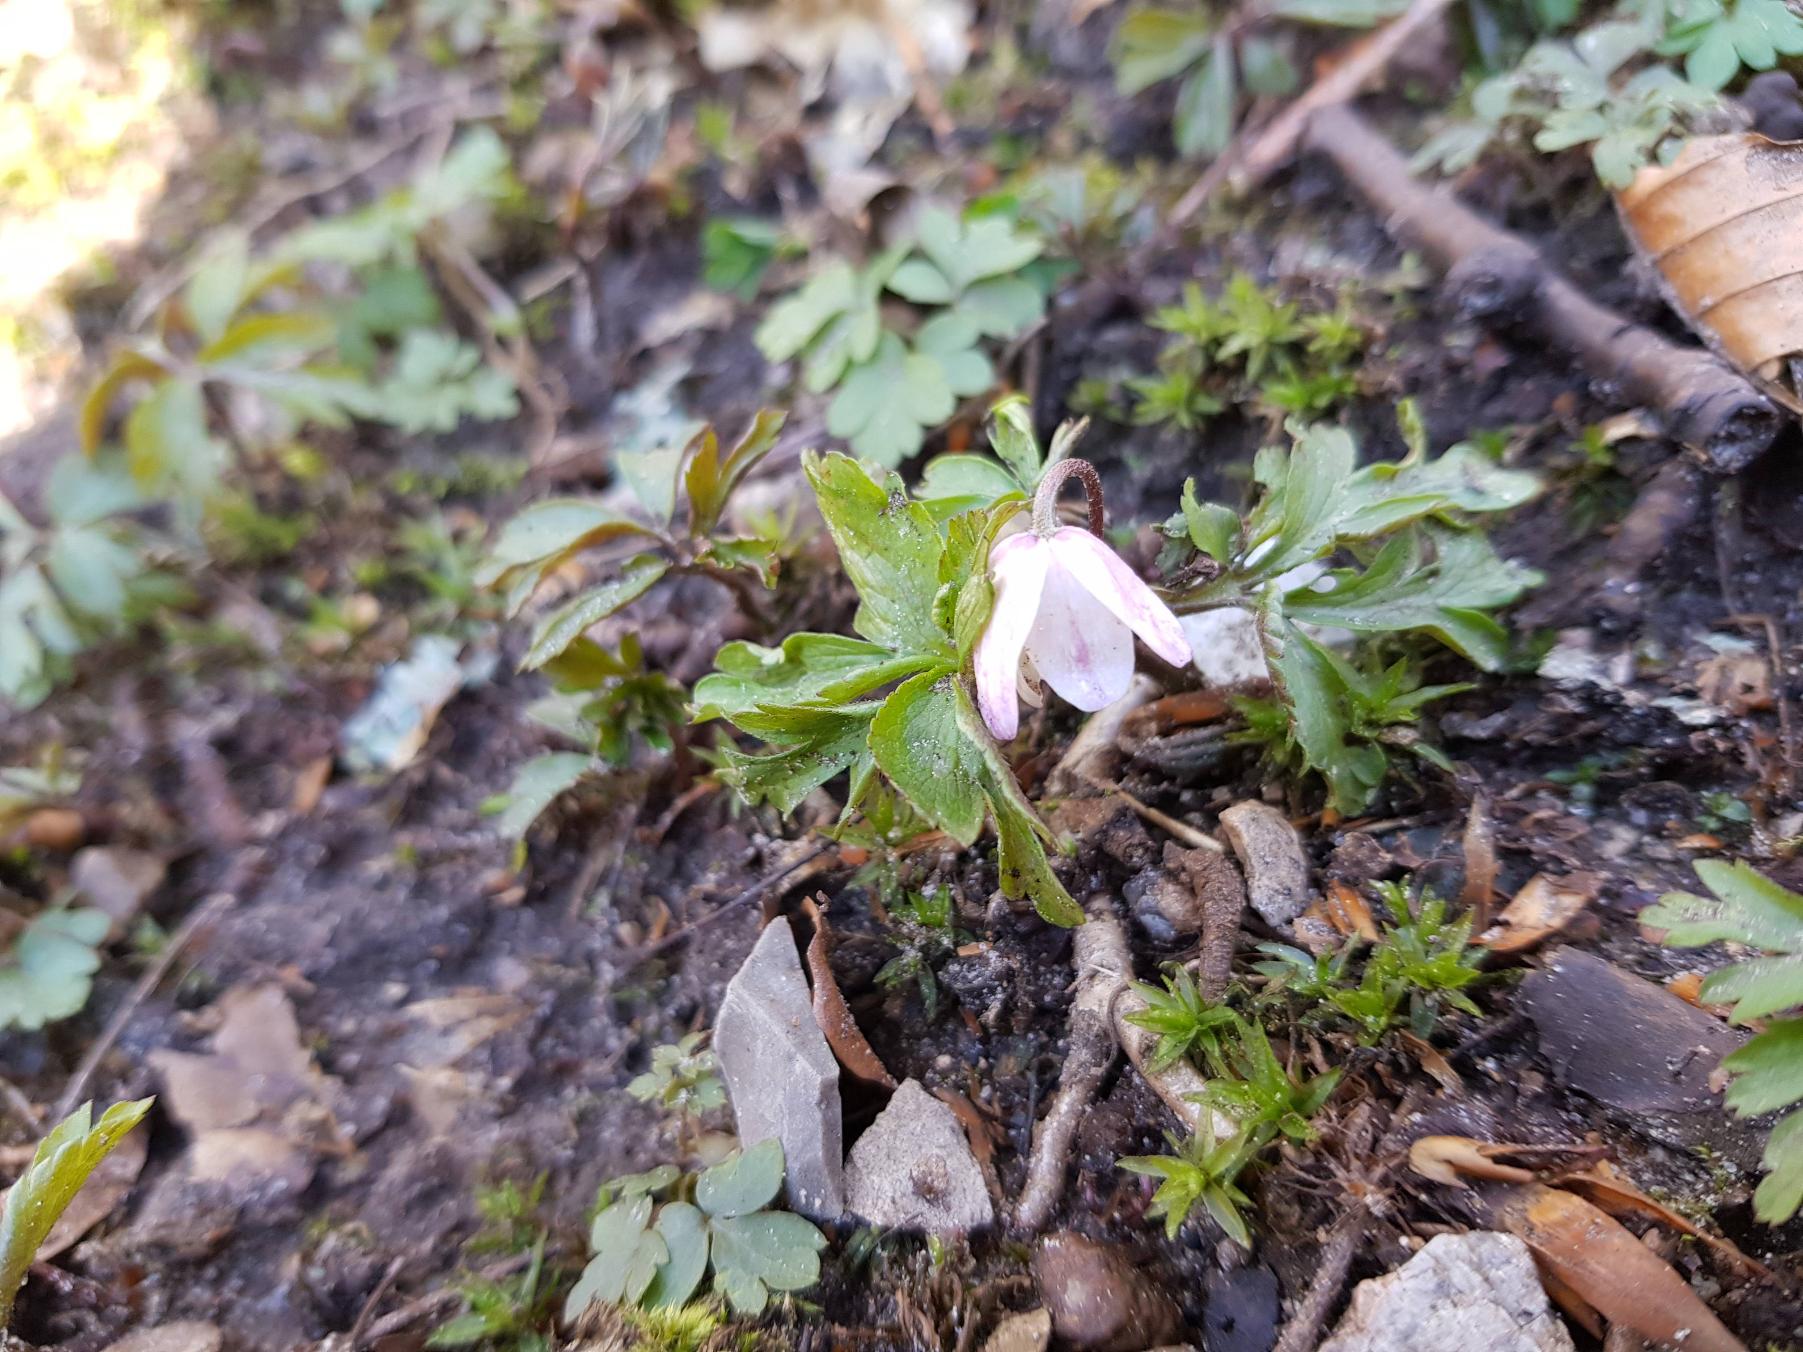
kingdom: Plantae
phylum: Tracheophyta
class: Magnoliopsida
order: Ranunculales
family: Ranunculaceae
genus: Anemone
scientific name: Anemone nemorosa
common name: Hvid anemone
